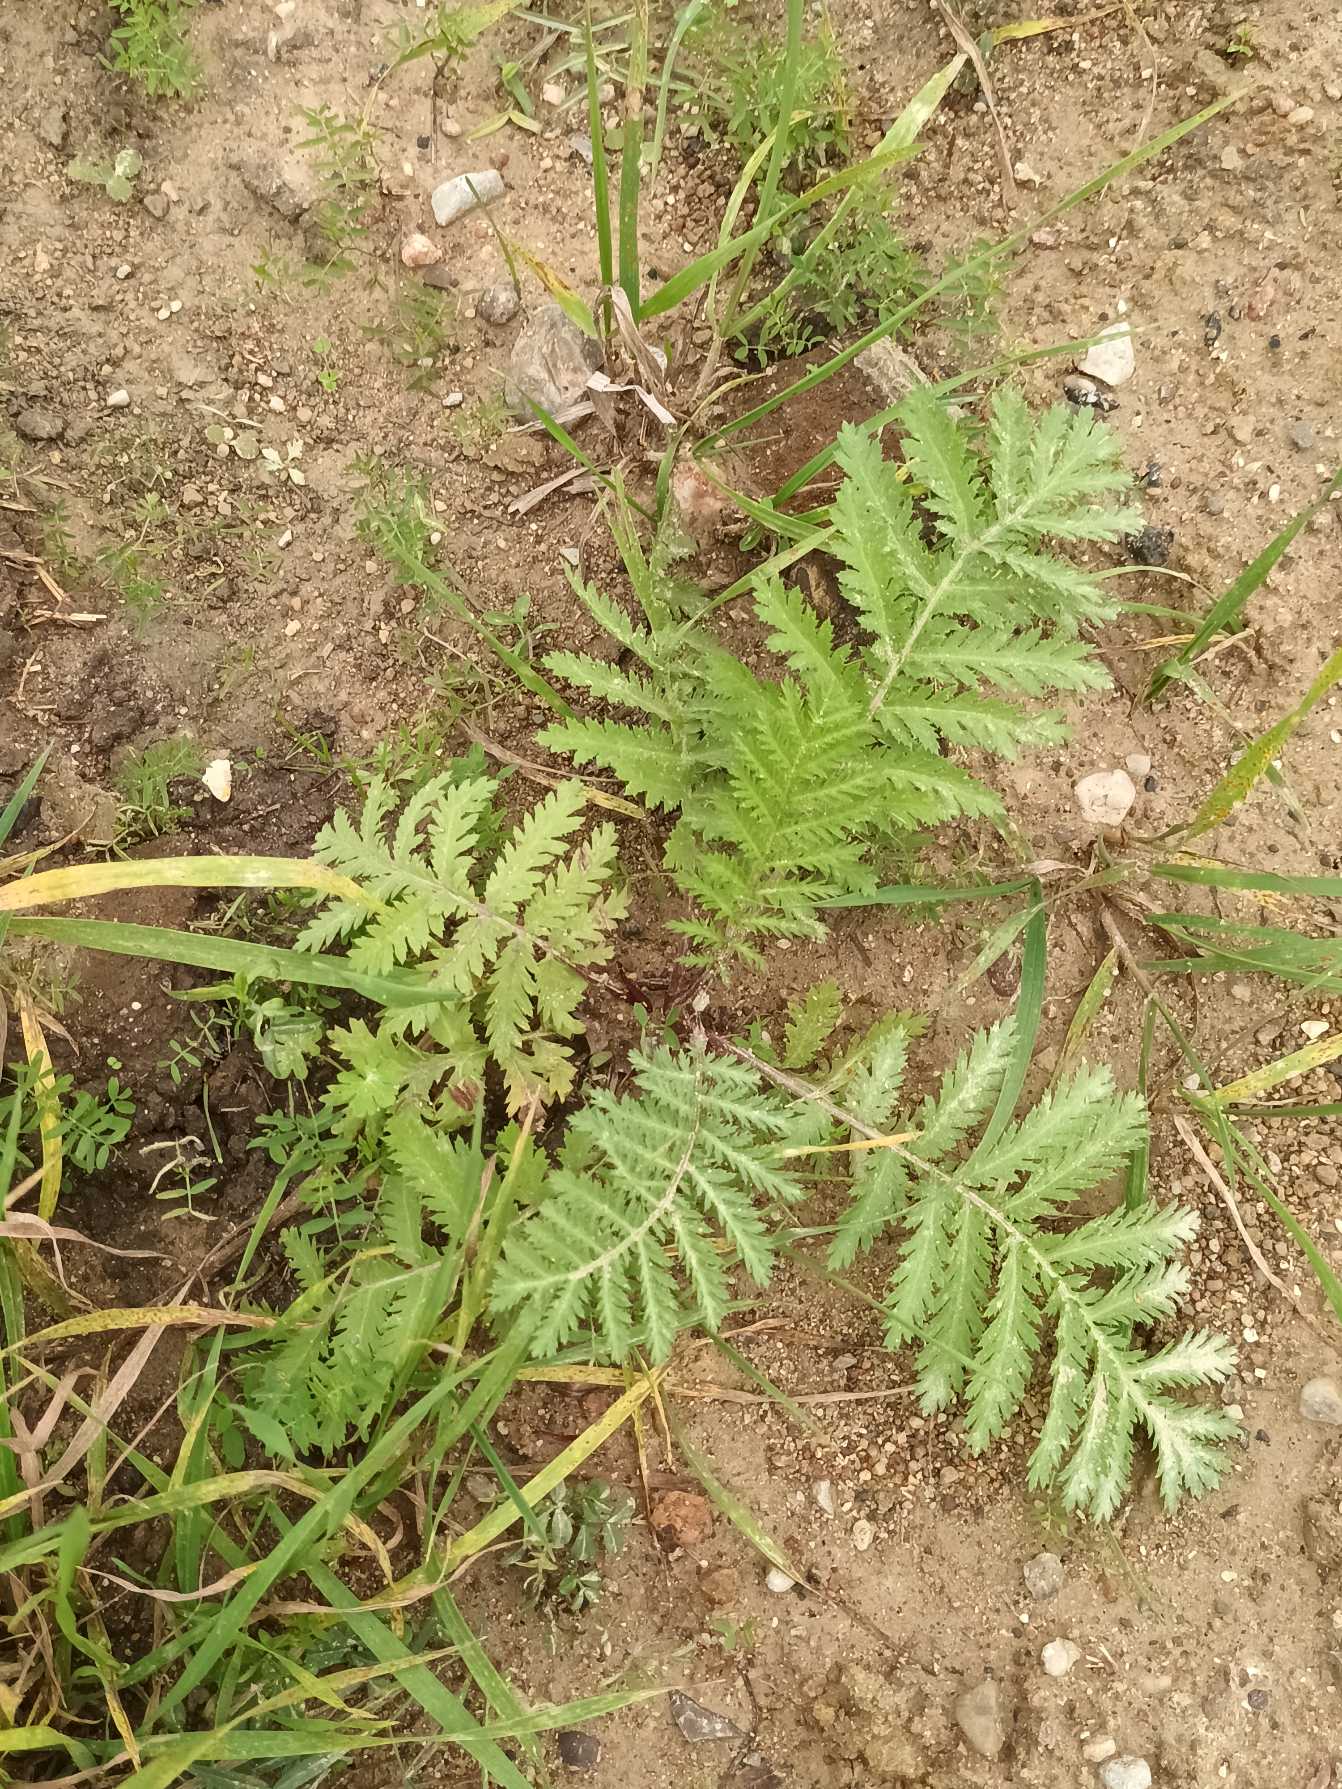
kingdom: Plantae
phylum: Tracheophyta
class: Magnoliopsida
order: Rosales
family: Rosaceae
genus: Argentina
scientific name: Argentina anserina
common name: Gåsepotentil
